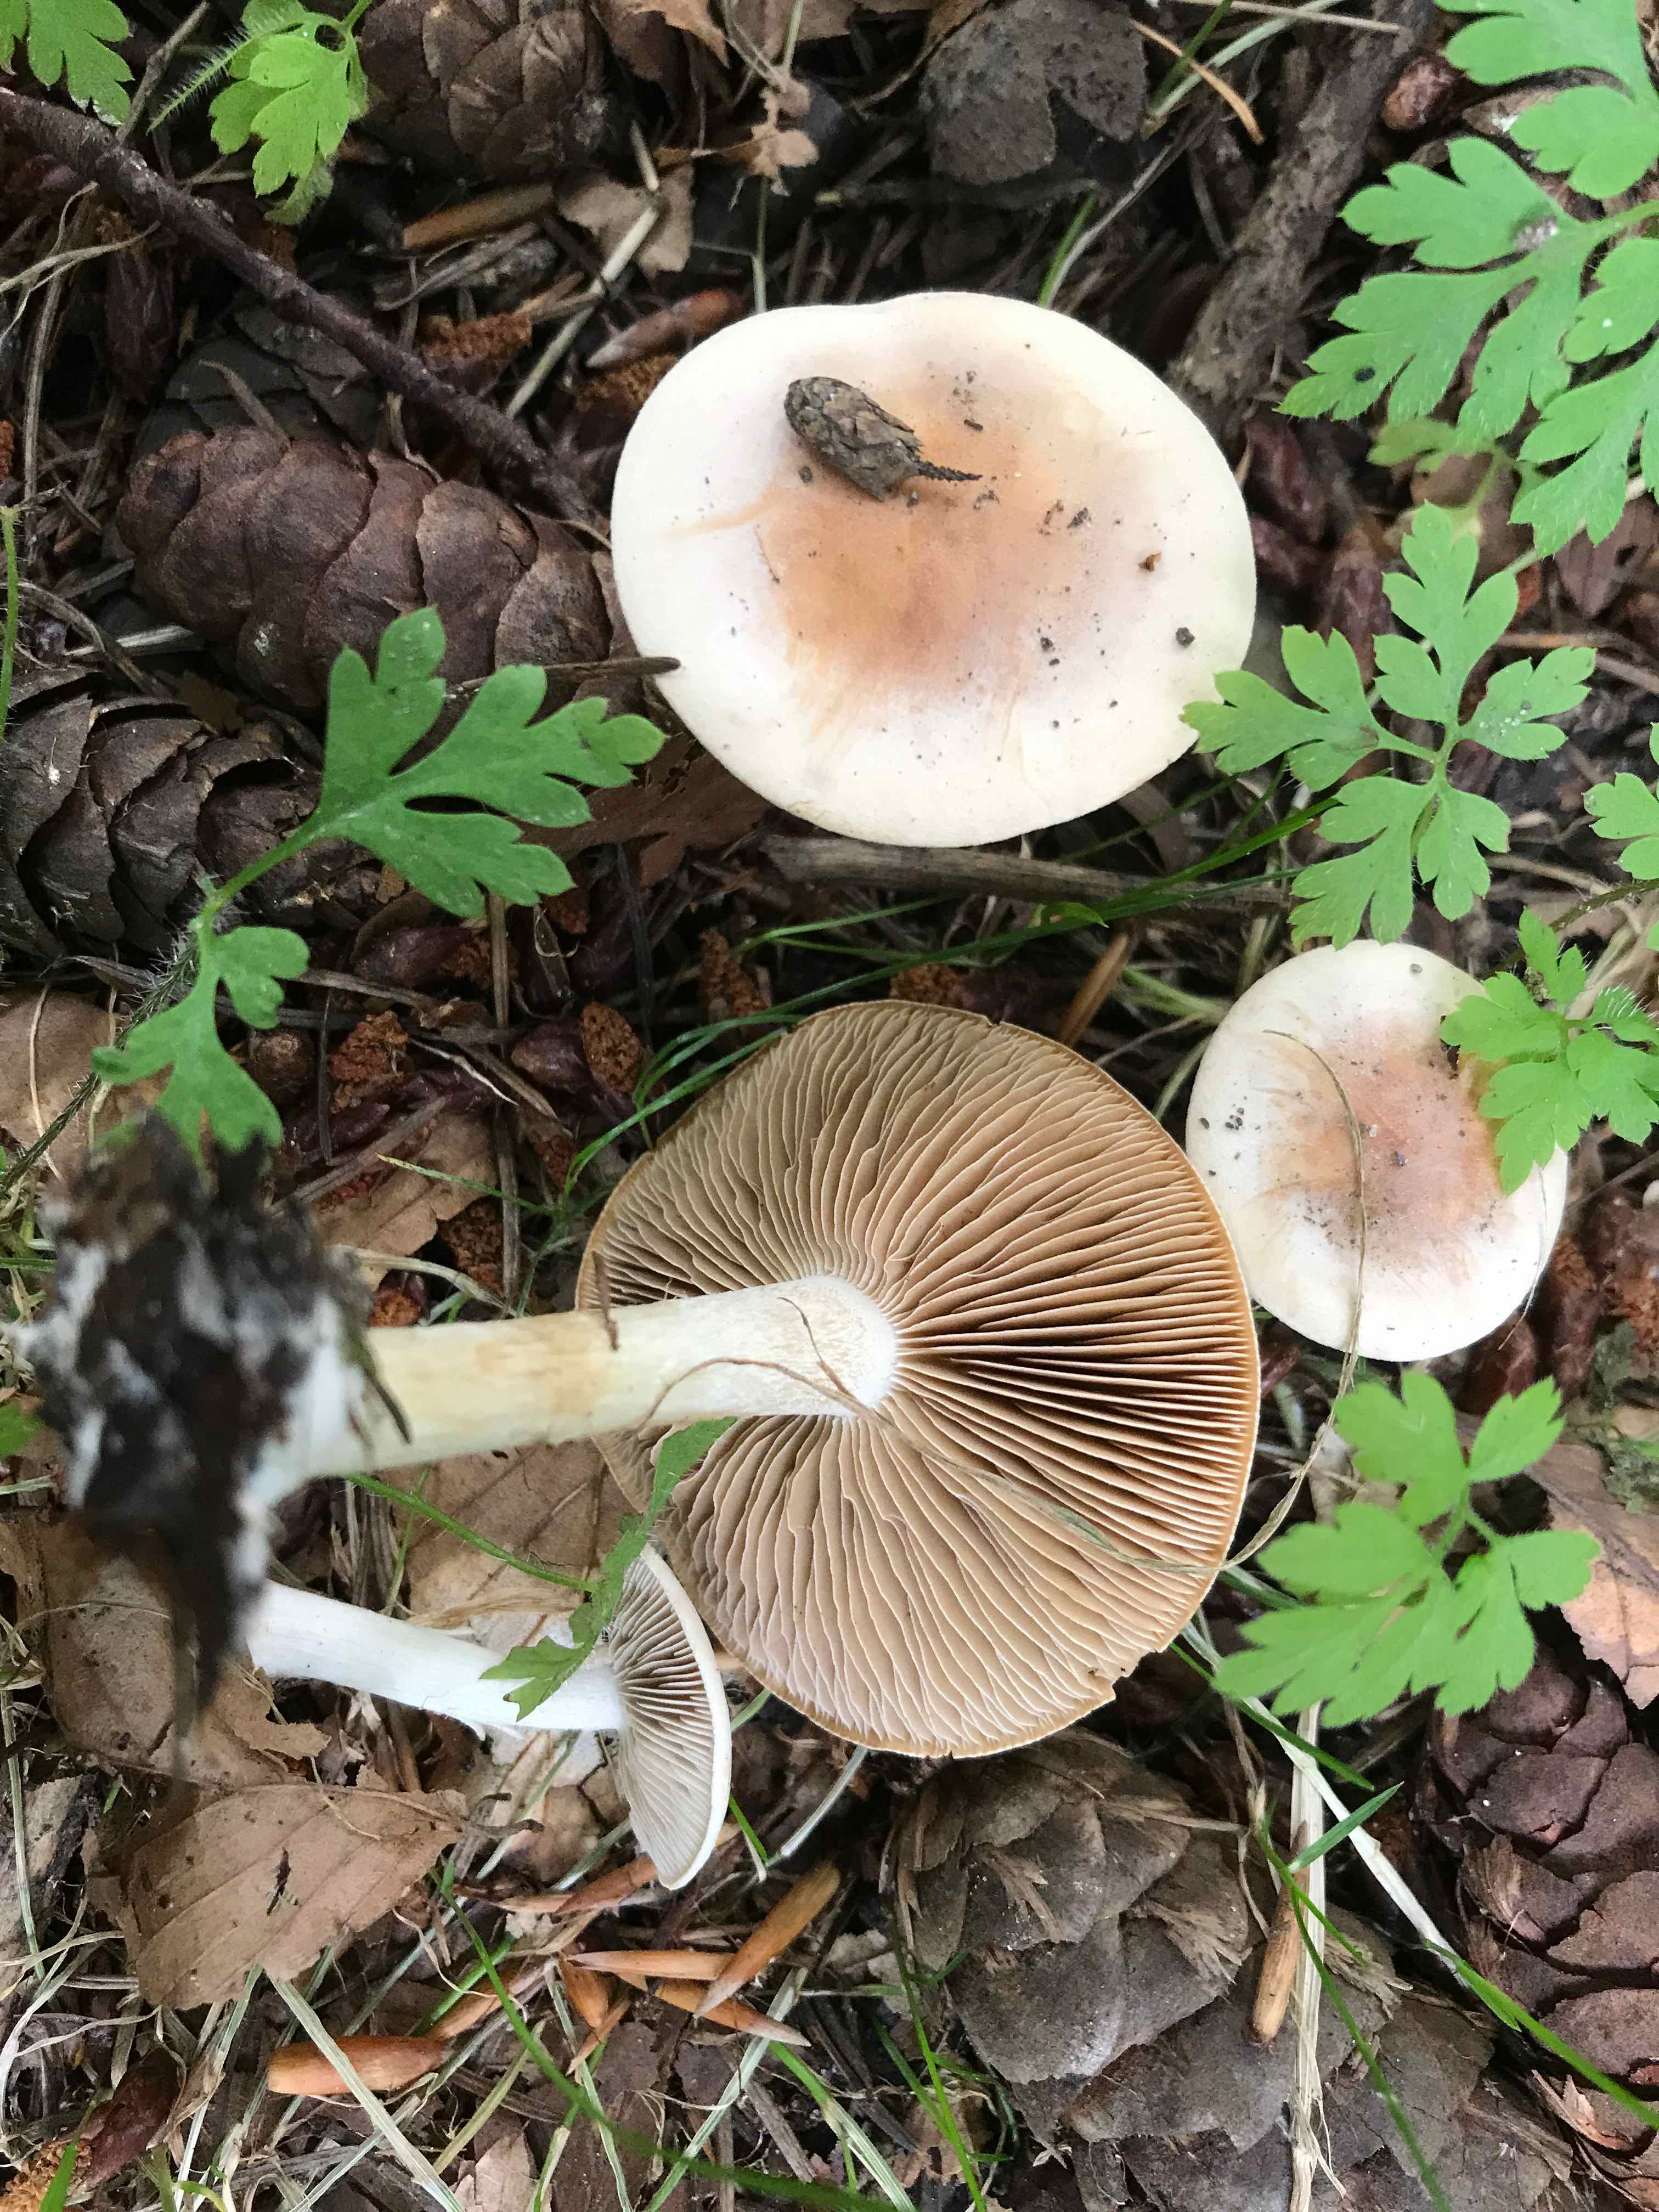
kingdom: Fungi
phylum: Basidiomycota
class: Agaricomycetes
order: Agaricales
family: Hymenogastraceae
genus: Hebeloma
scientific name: Hebeloma
